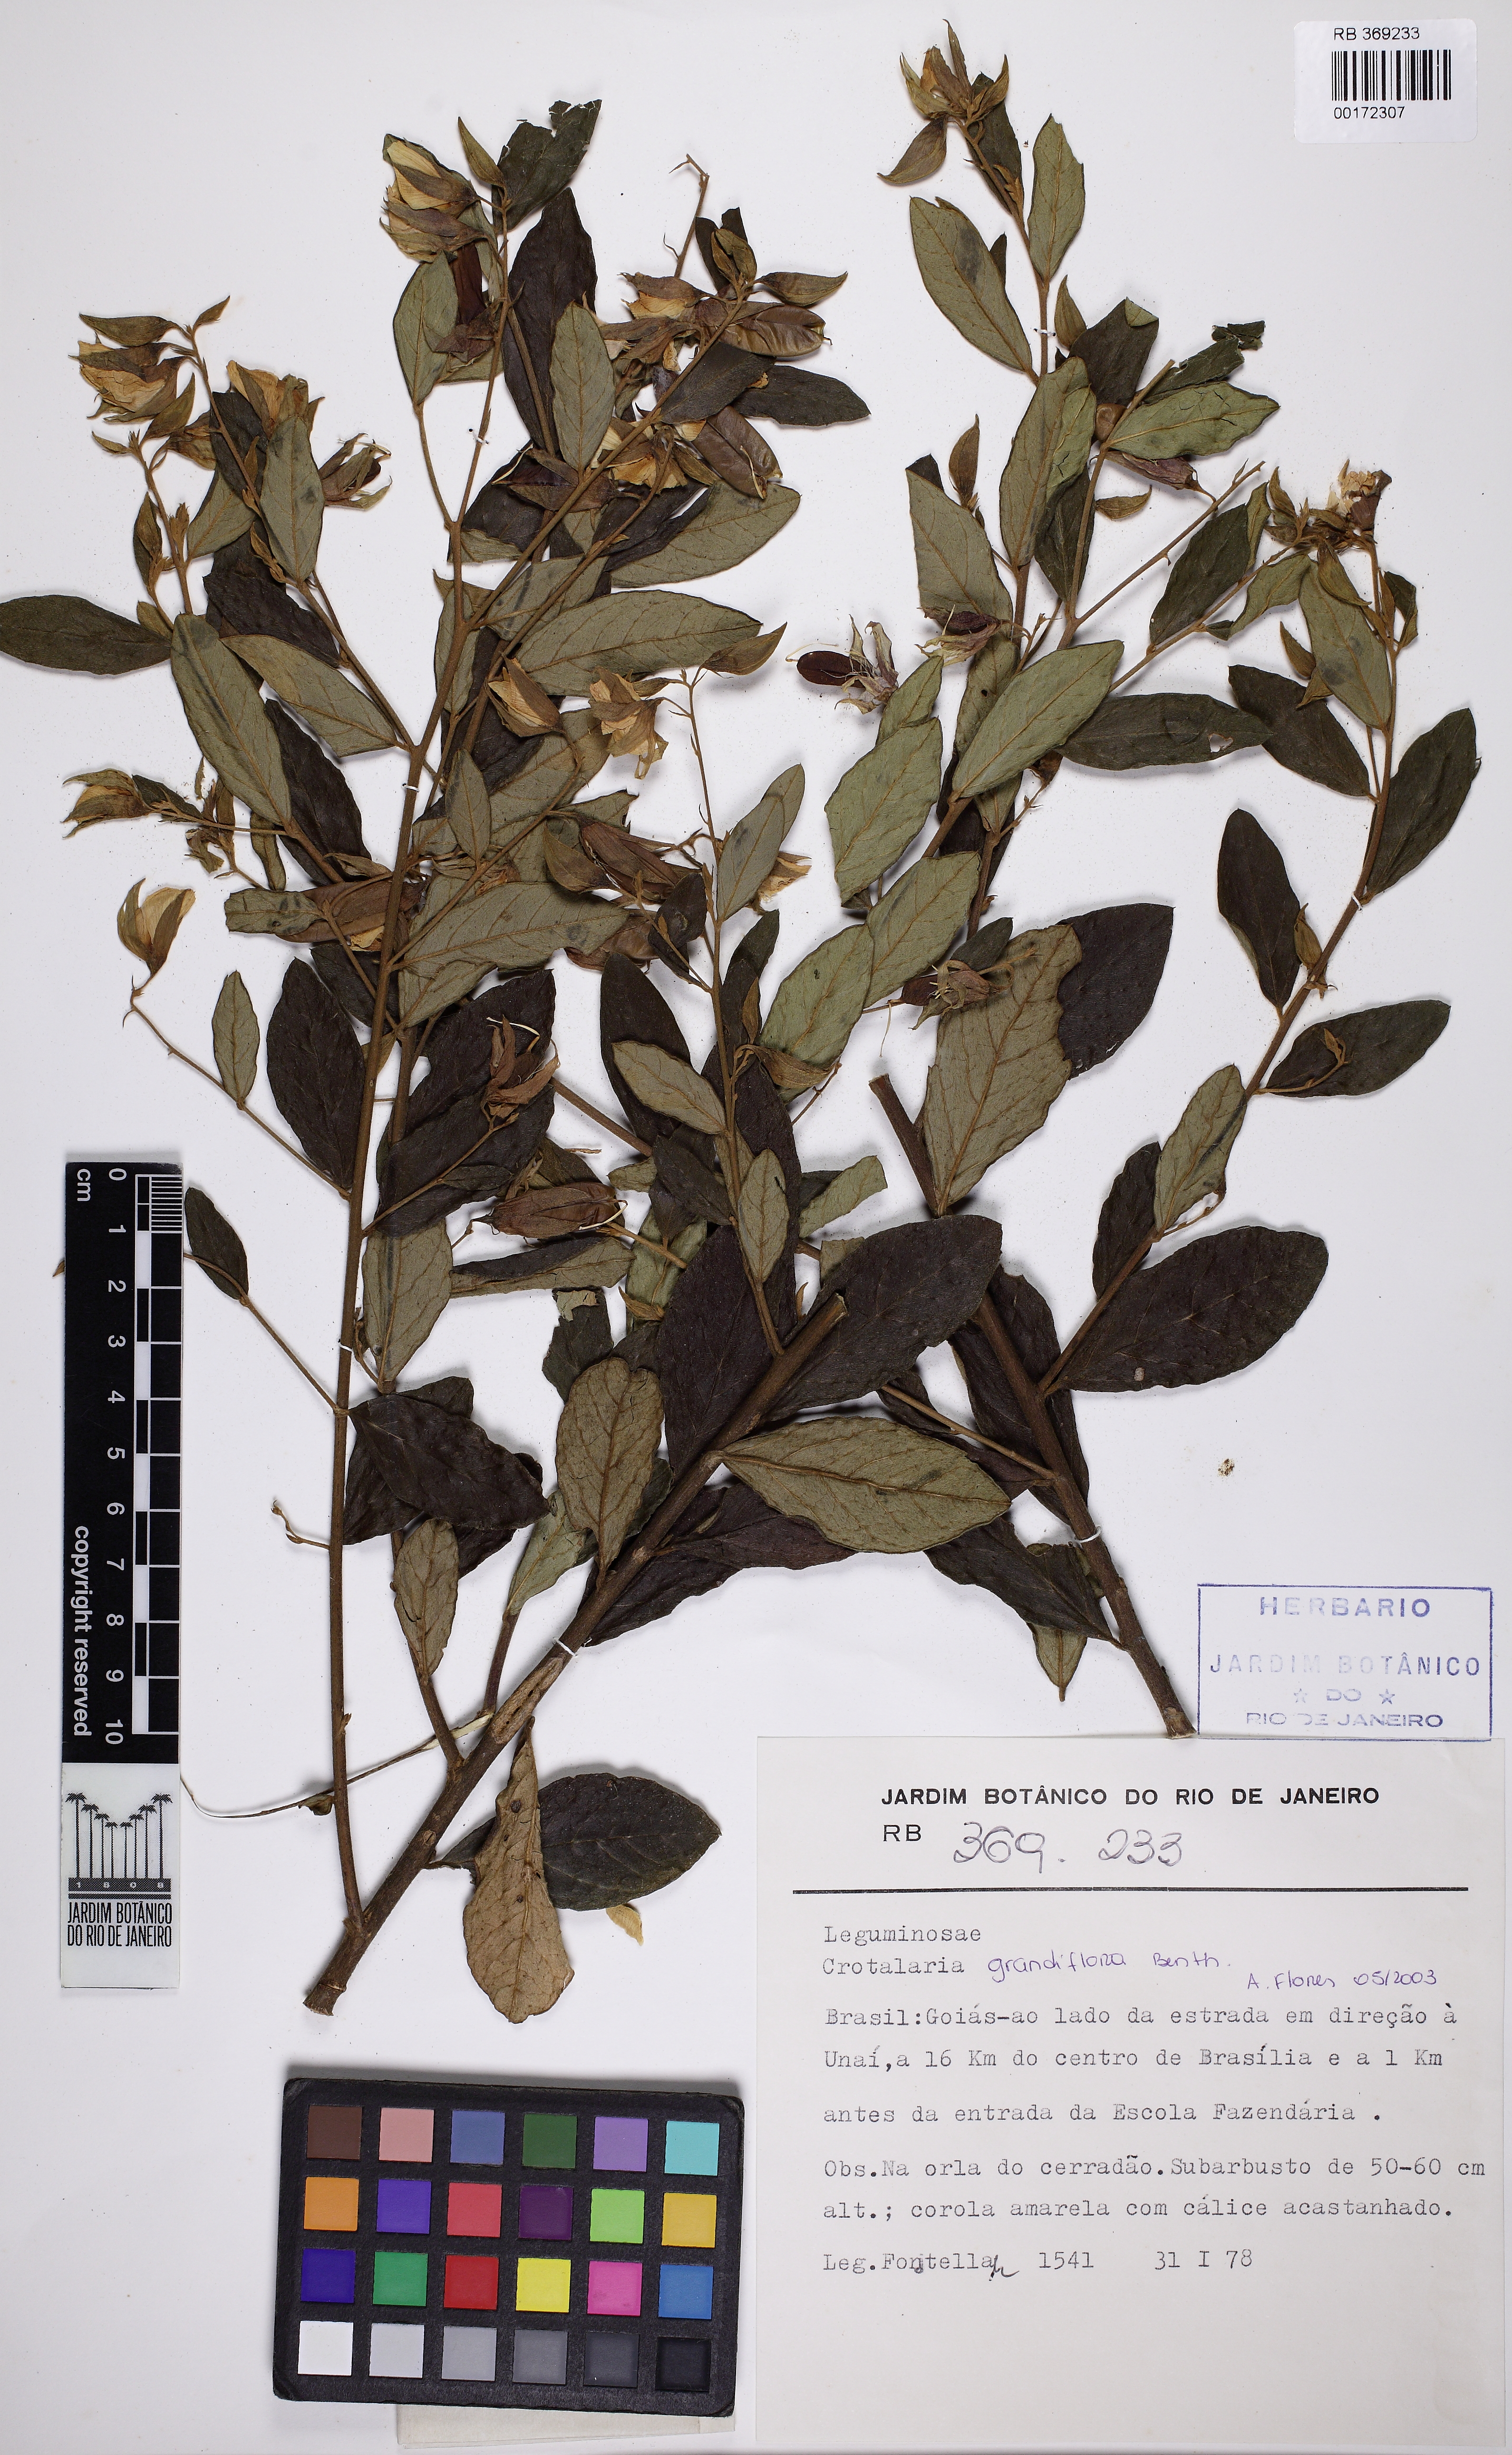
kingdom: Plantae
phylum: Tracheophyta
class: Magnoliopsida
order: Fabales
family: Fabaceae
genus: Crotalaria
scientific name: Crotalaria grandiflora
